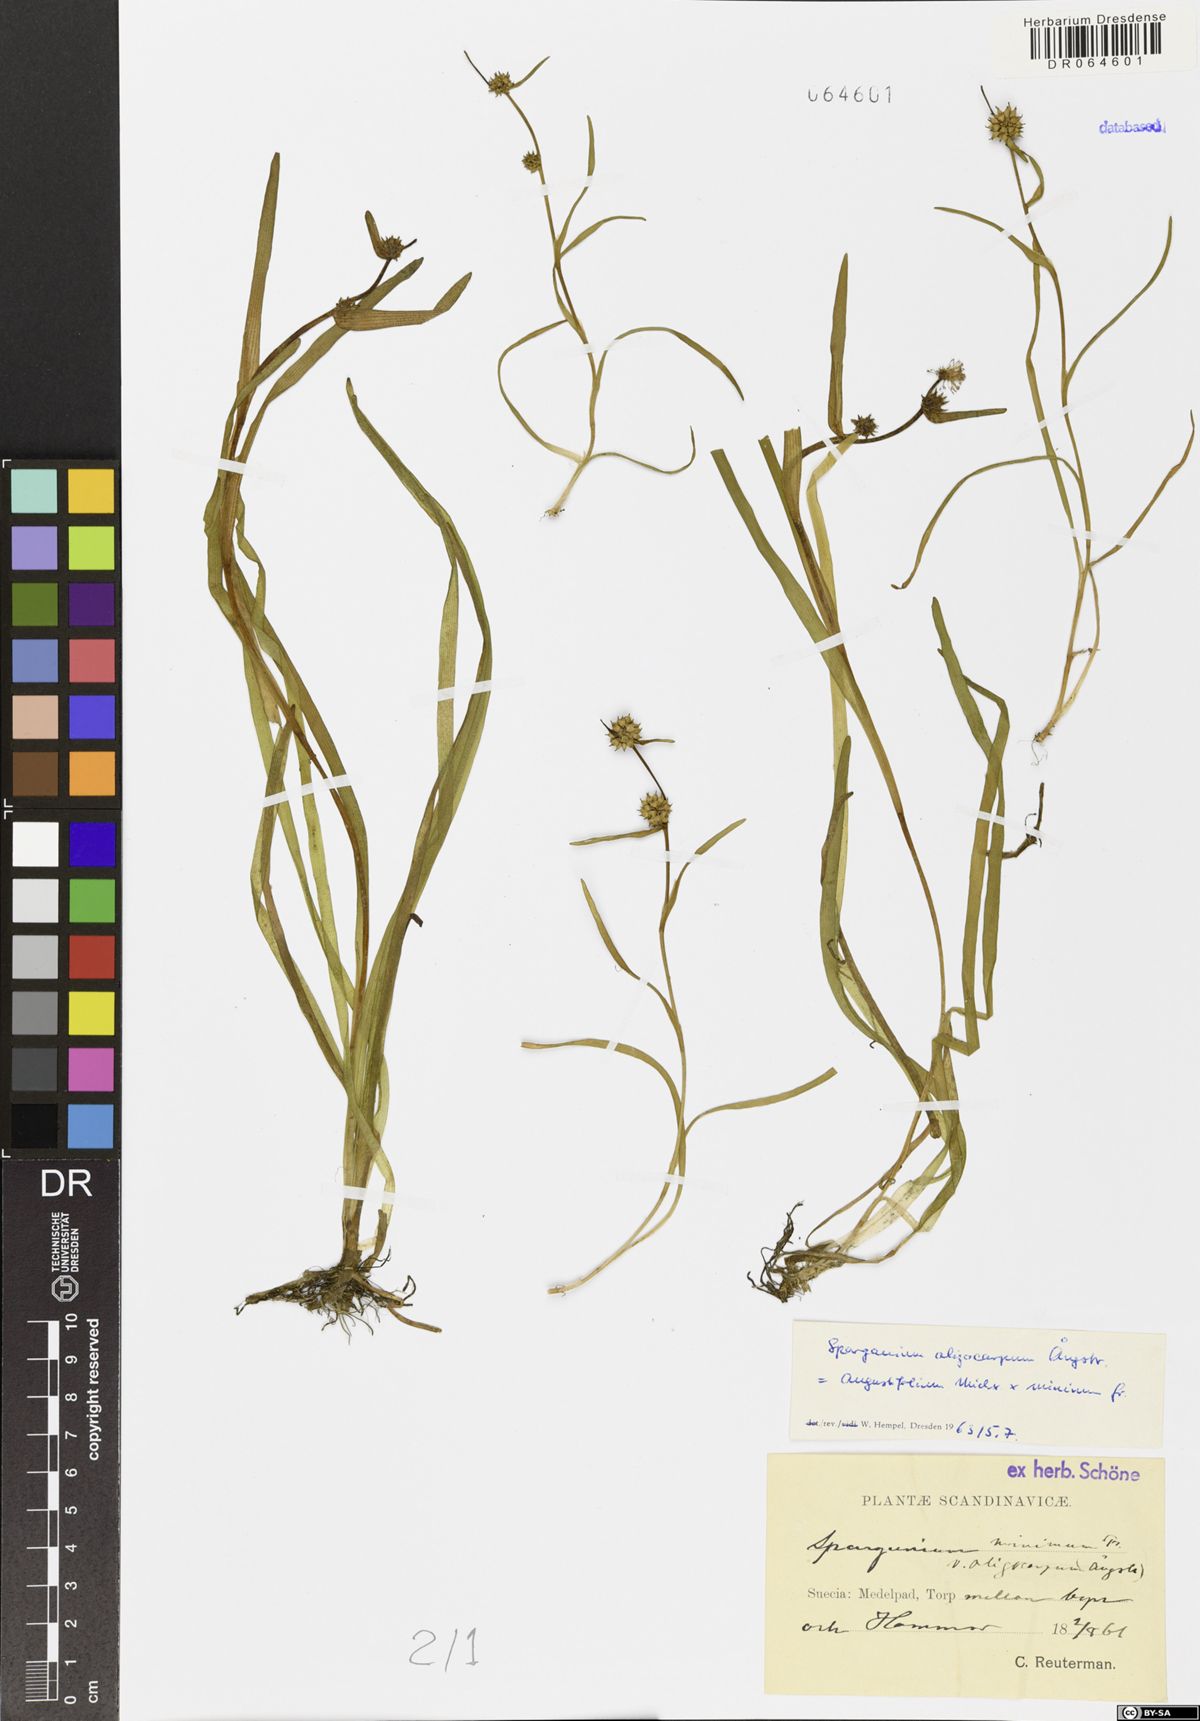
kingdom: Plantae
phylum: Tracheophyta
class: Liliopsida
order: Poales
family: Typhaceae
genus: Sparganium
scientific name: Sparganium oligocarpon
